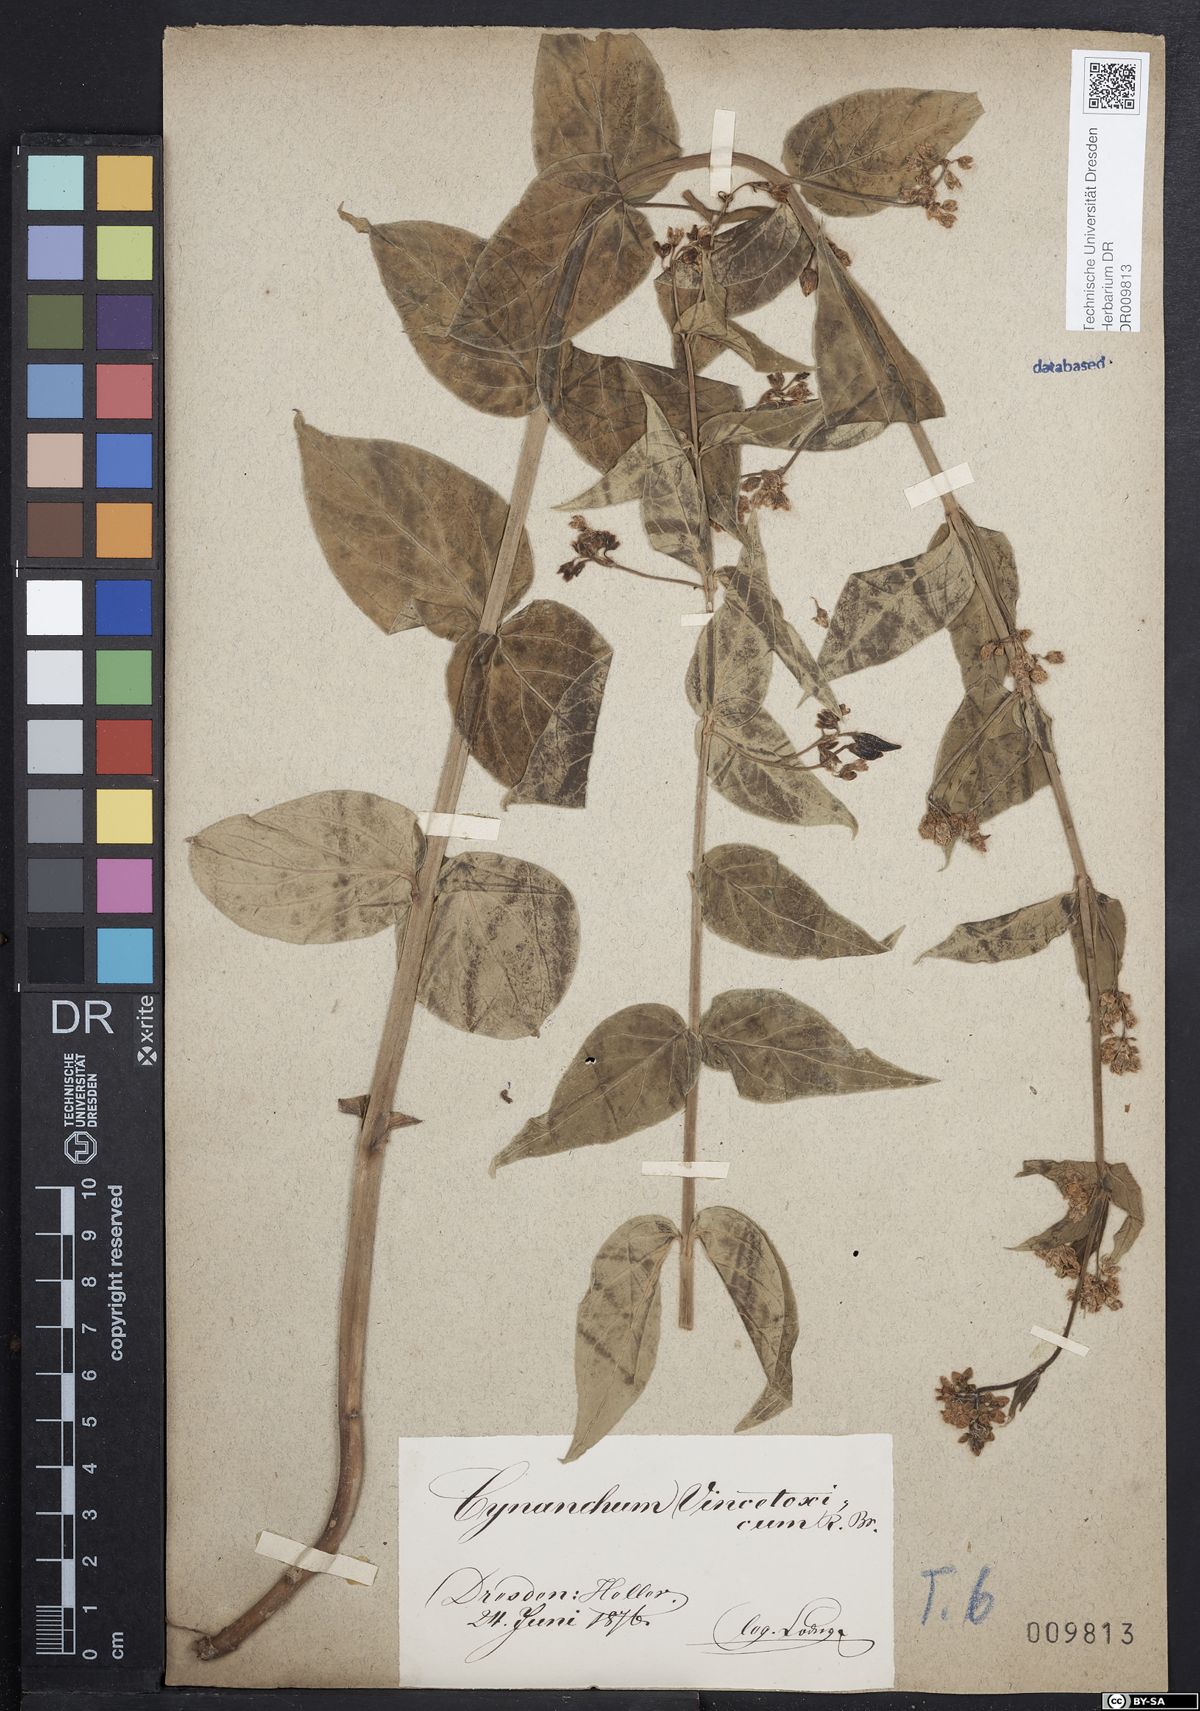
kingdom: Plantae
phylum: Tracheophyta
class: Magnoliopsida
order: Gentianales
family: Apocynaceae
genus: Vincetoxicum
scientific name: Vincetoxicum hirundinaria
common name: White swallowwort
